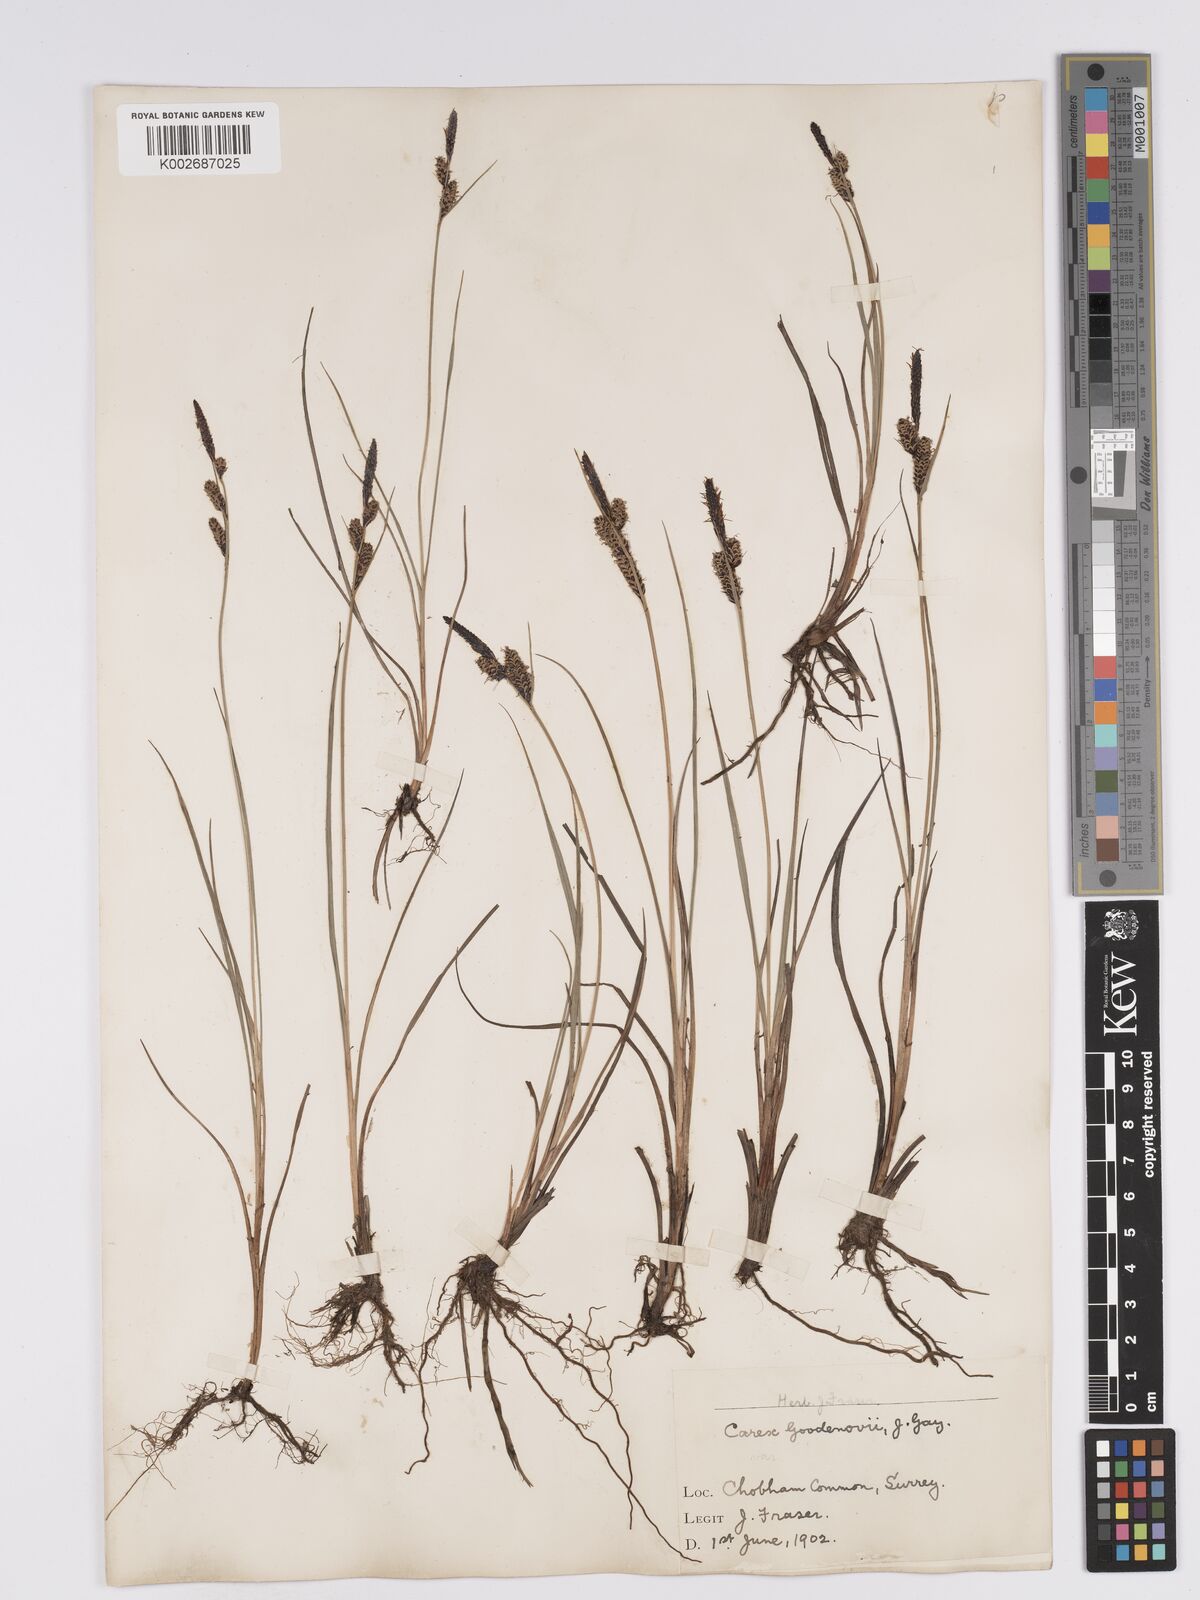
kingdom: Plantae
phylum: Tracheophyta
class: Liliopsida
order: Poales
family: Cyperaceae
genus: Carex
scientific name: Carex nigra
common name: Common sedge
